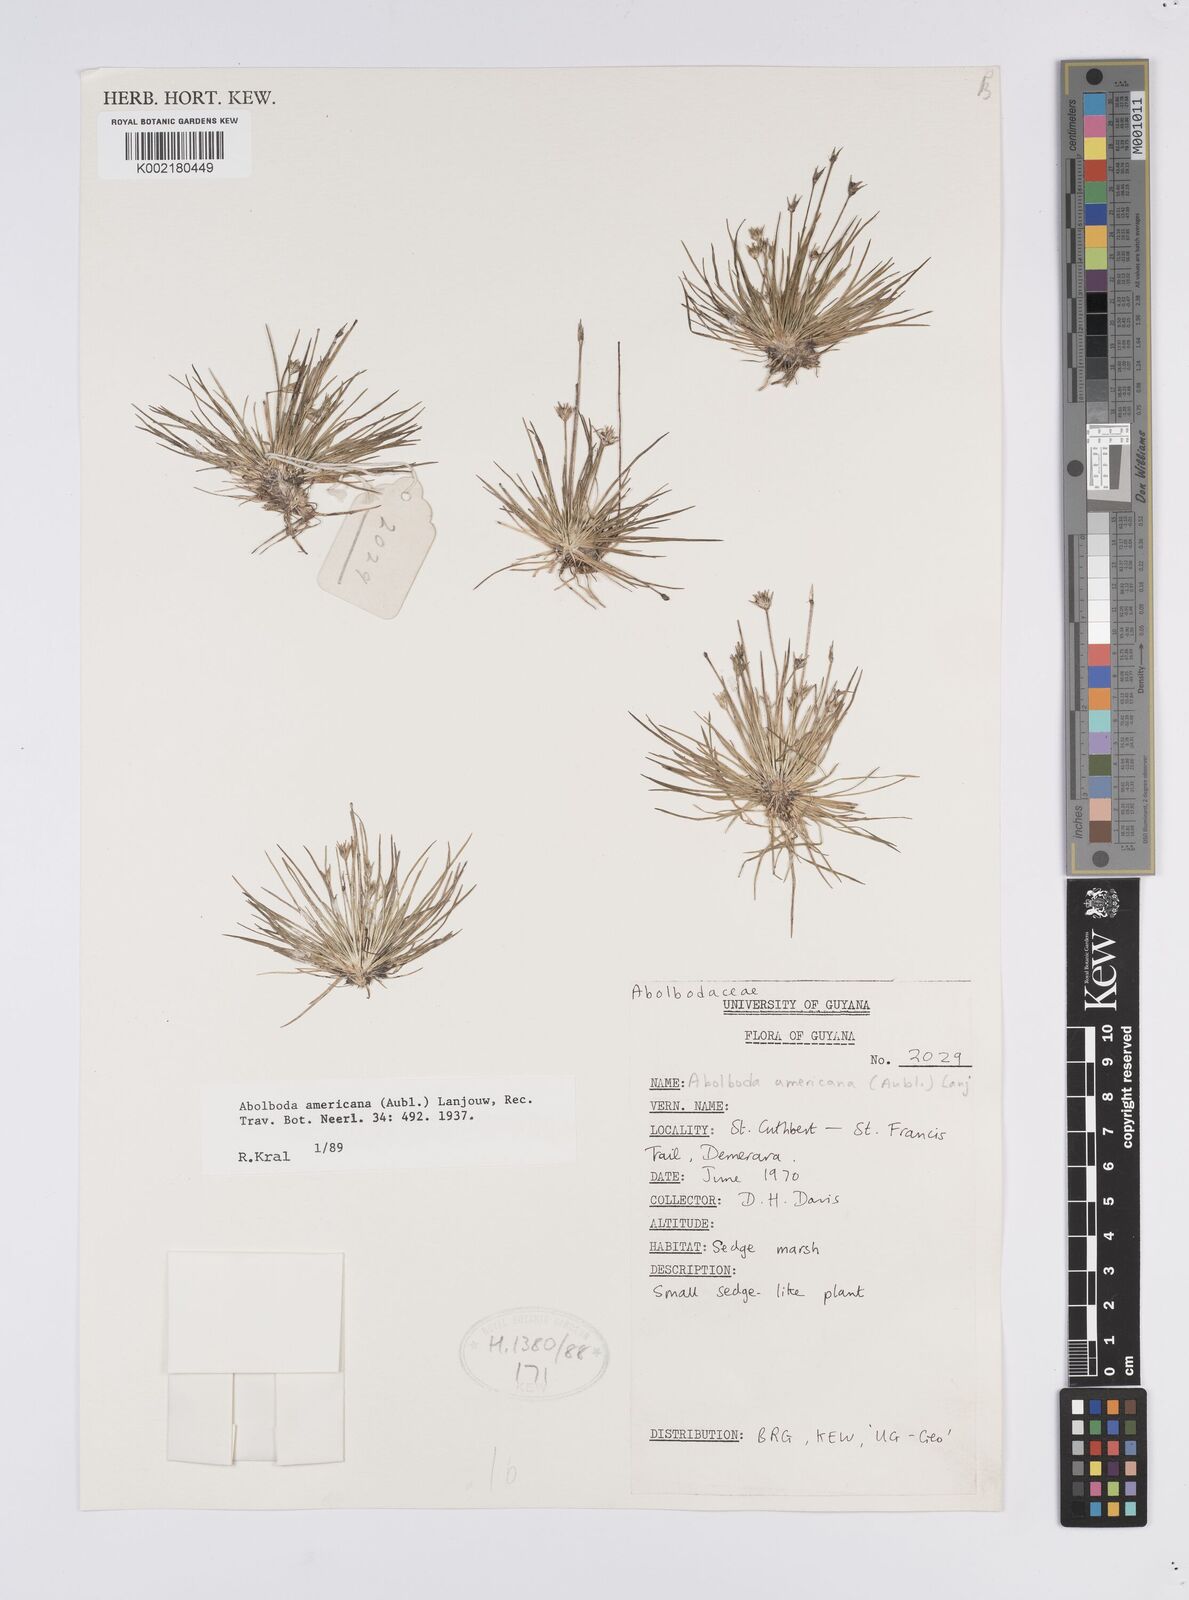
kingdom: Plantae
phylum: Tracheophyta
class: Liliopsida
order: Poales
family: Xyridaceae
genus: Abolboda
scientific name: Abolboda americana
